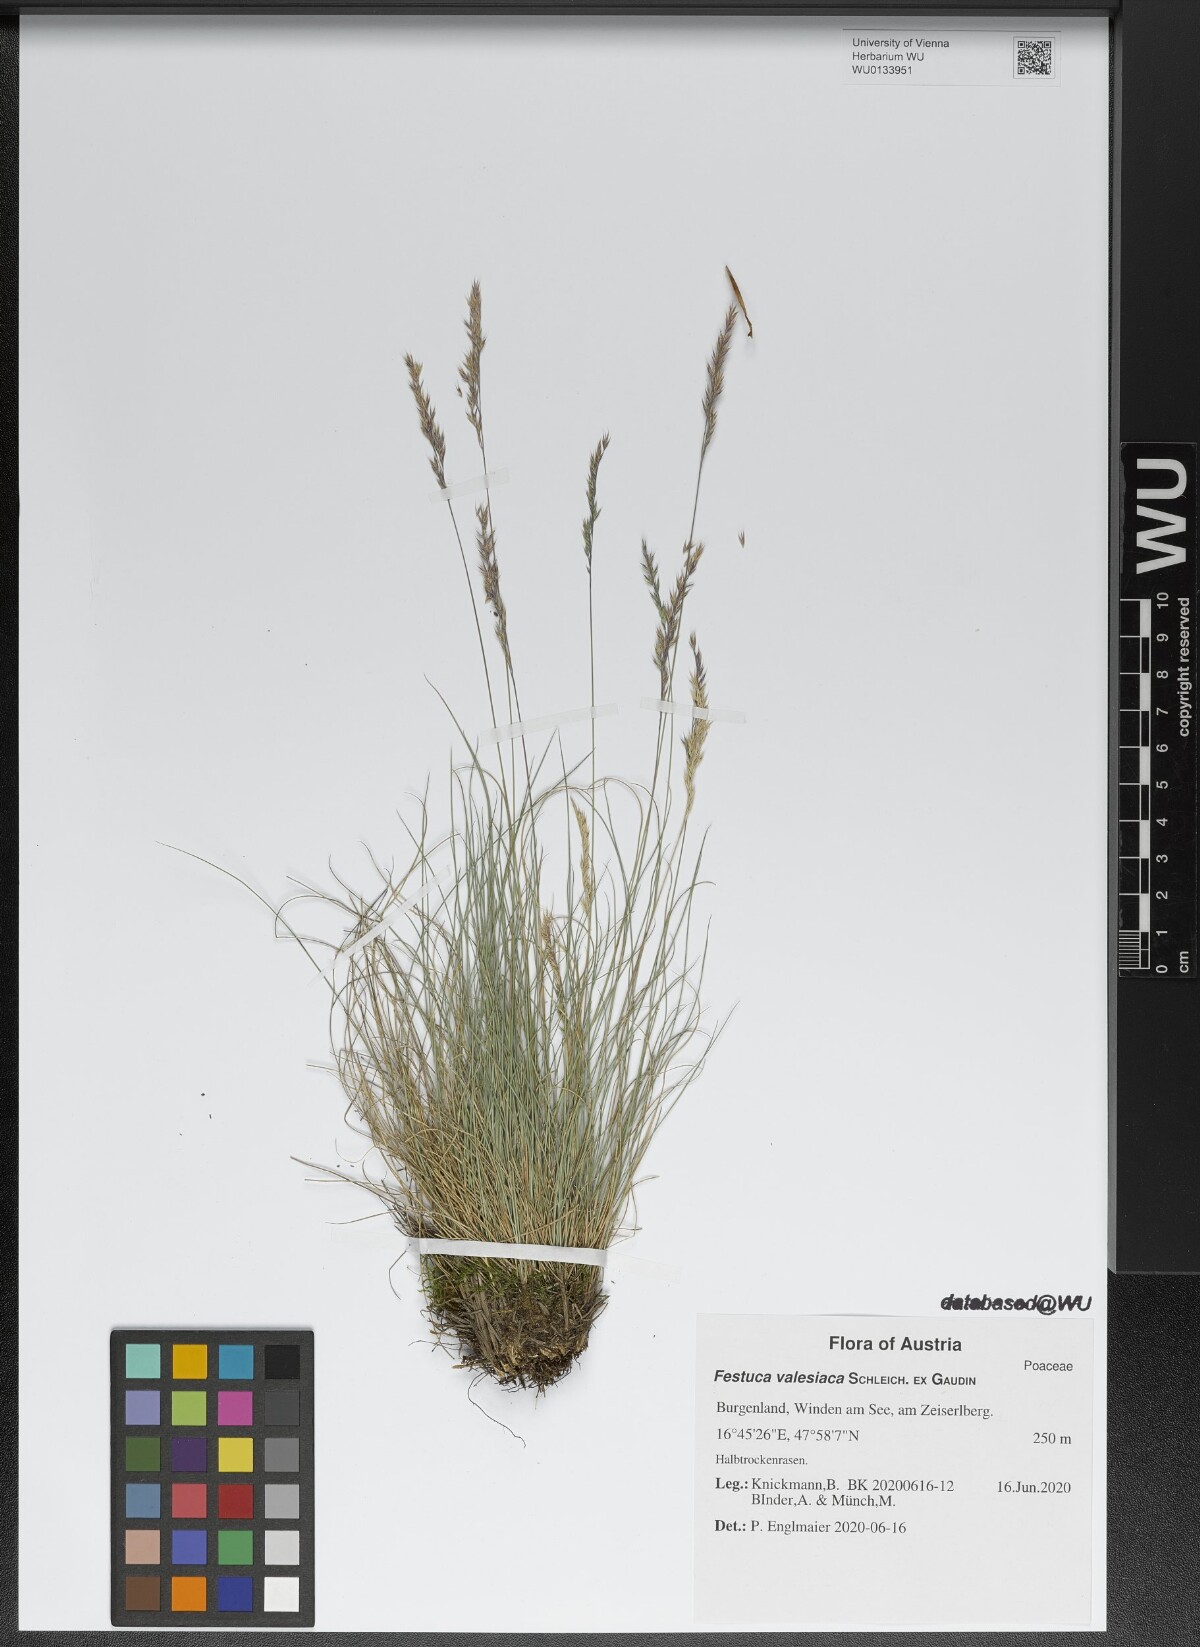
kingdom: Plantae
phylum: Tracheophyta
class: Liliopsida
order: Poales
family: Poaceae
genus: Festuca
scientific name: Festuca valesiaca
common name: Volga fescue
